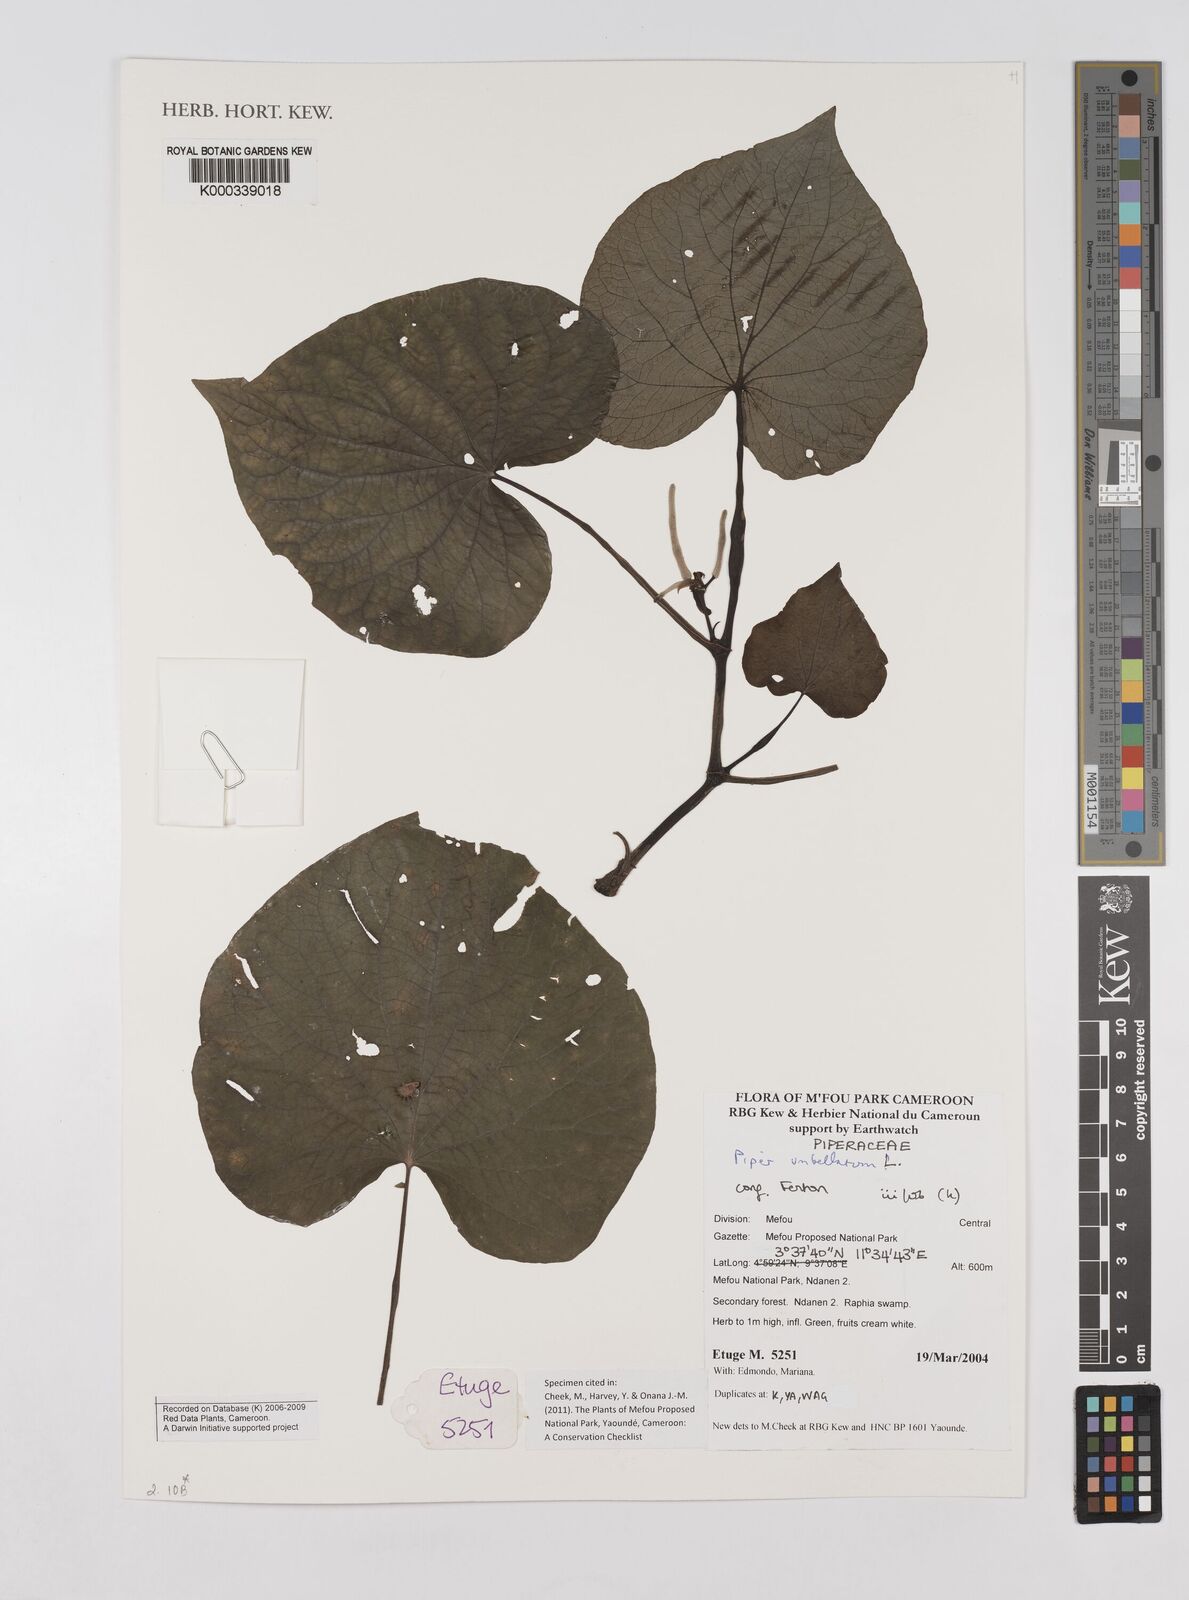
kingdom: Plantae
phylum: Tracheophyta
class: Magnoliopsida
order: Piperales
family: Piperaceae
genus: Piper
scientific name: Piper umbellatum
